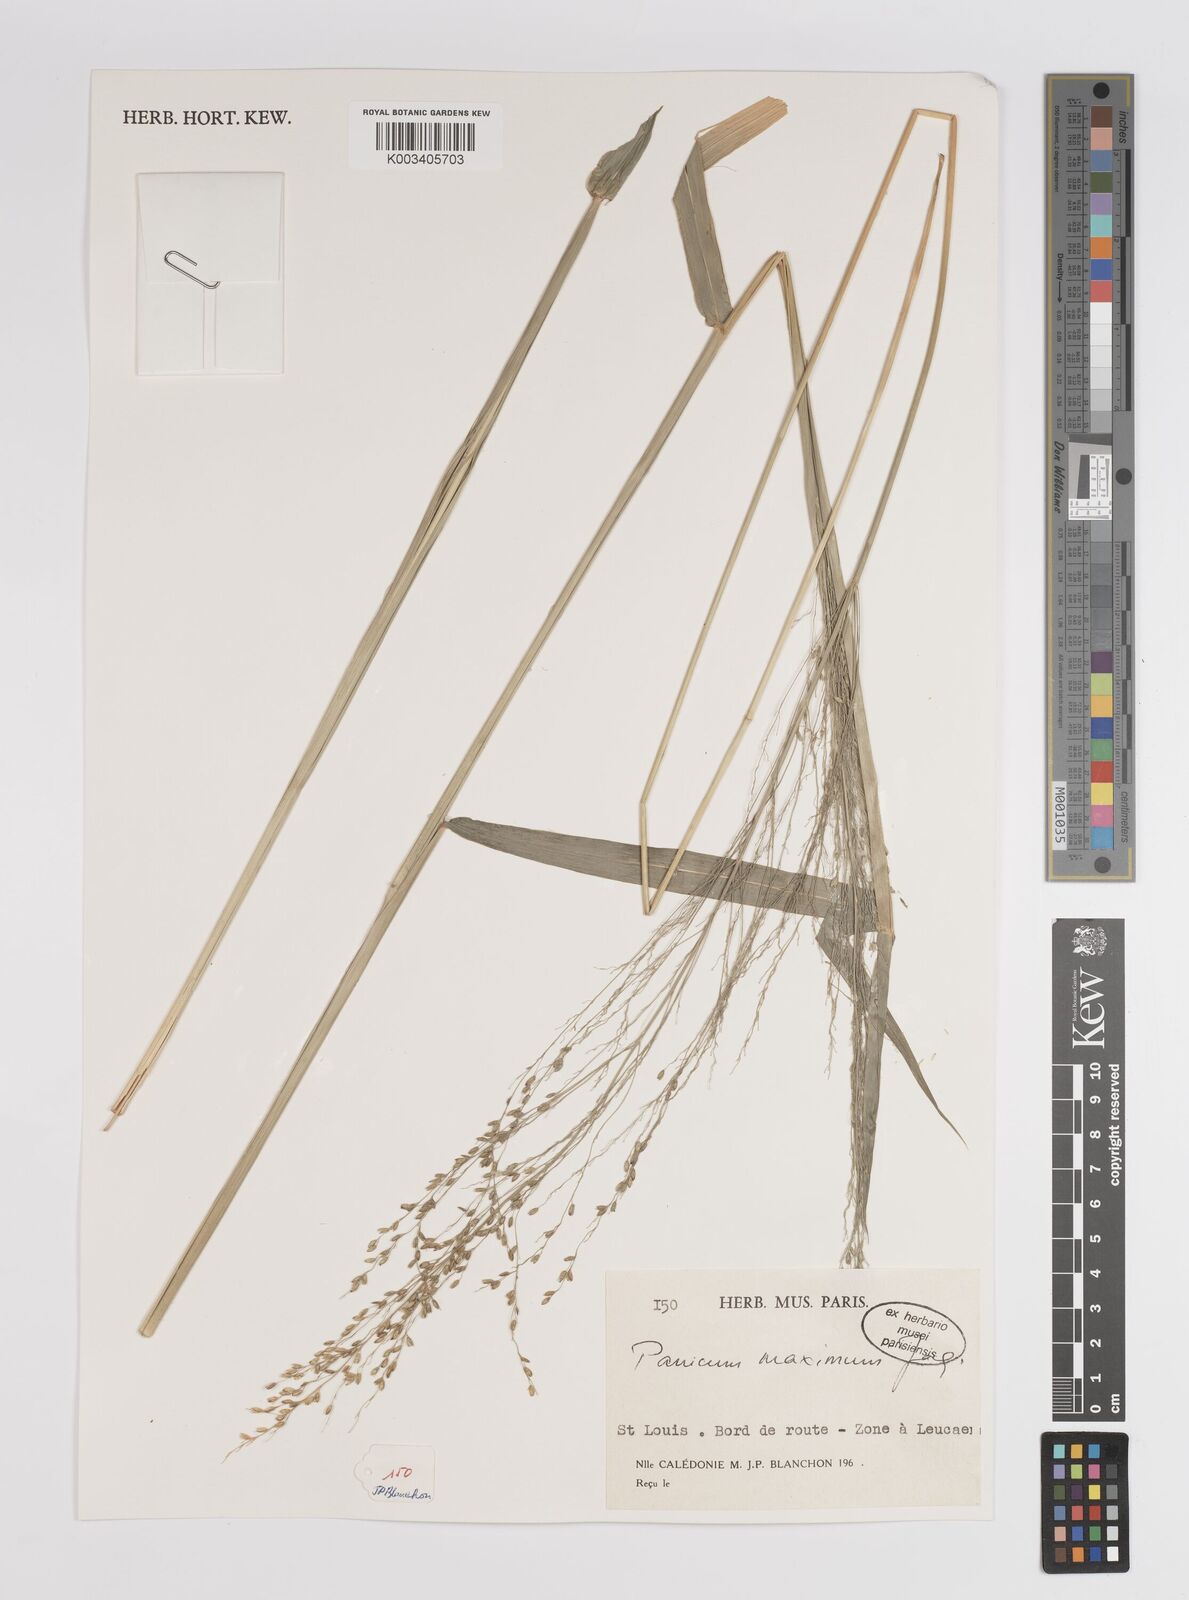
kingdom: Plantae
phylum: Tracheophyta
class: Liliopsida
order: Poales
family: Poaceae
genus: Megathyrsus
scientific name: Megathyrsus maximus
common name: Guineagrass
